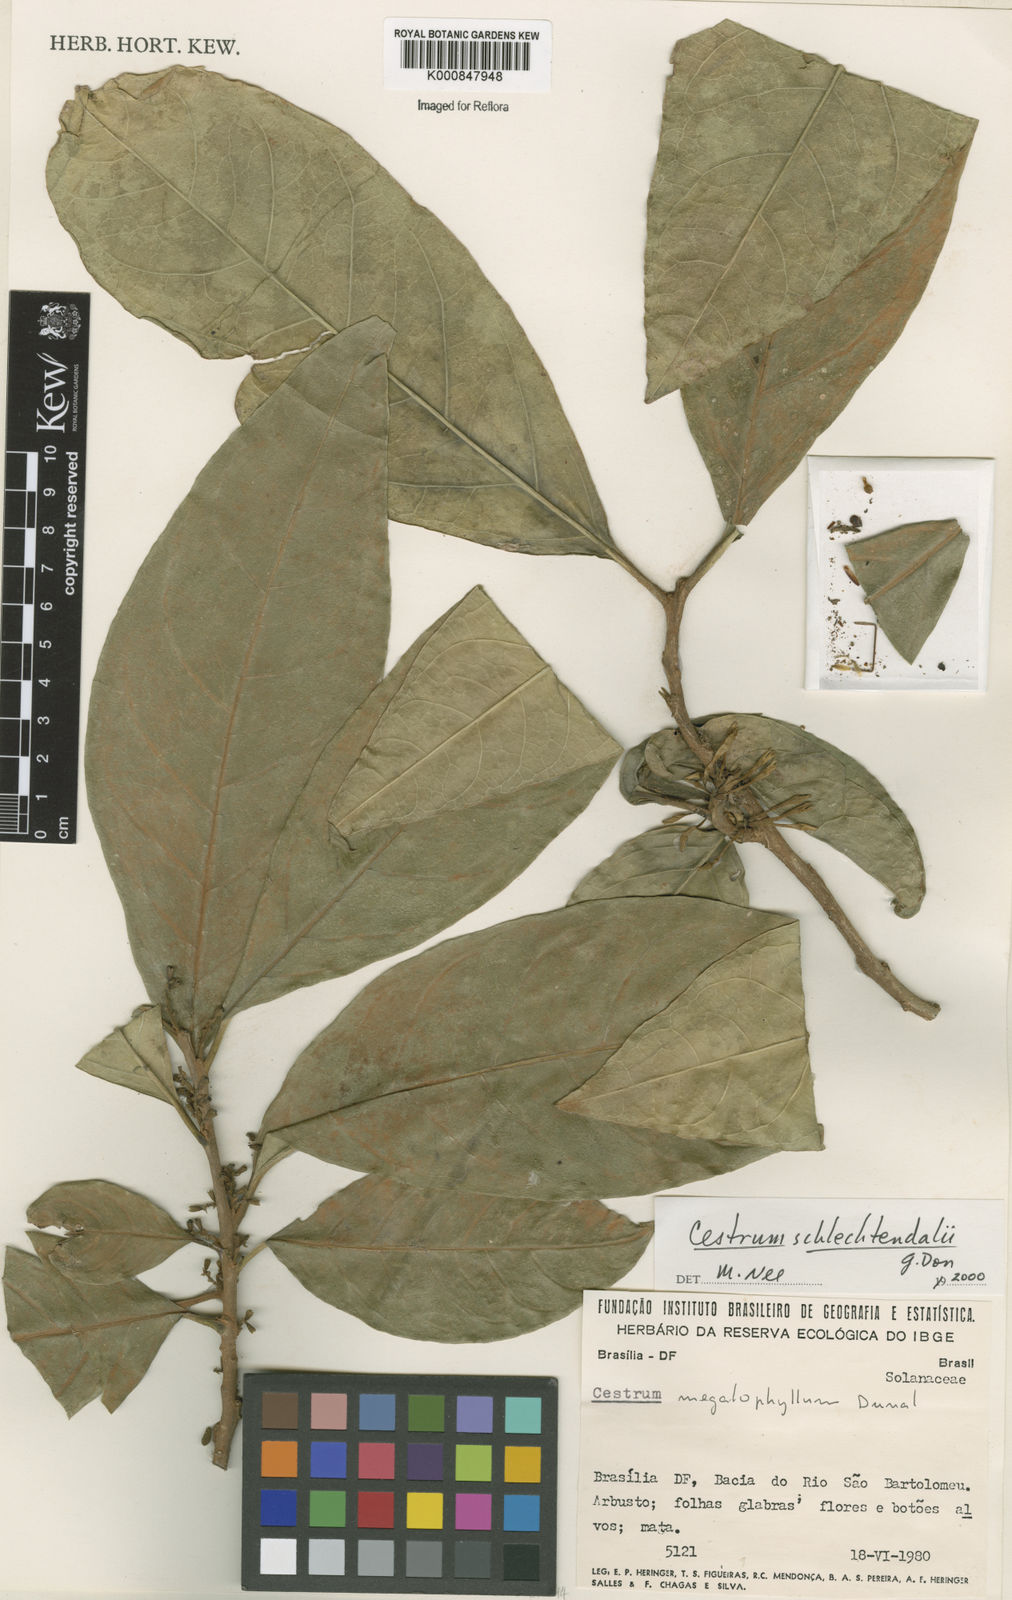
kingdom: Plantae
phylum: Tracheophyta
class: Magnoliopsida
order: Solanales
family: Solanaceae
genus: Cestrum
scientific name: Cestrum schlechtendalii
